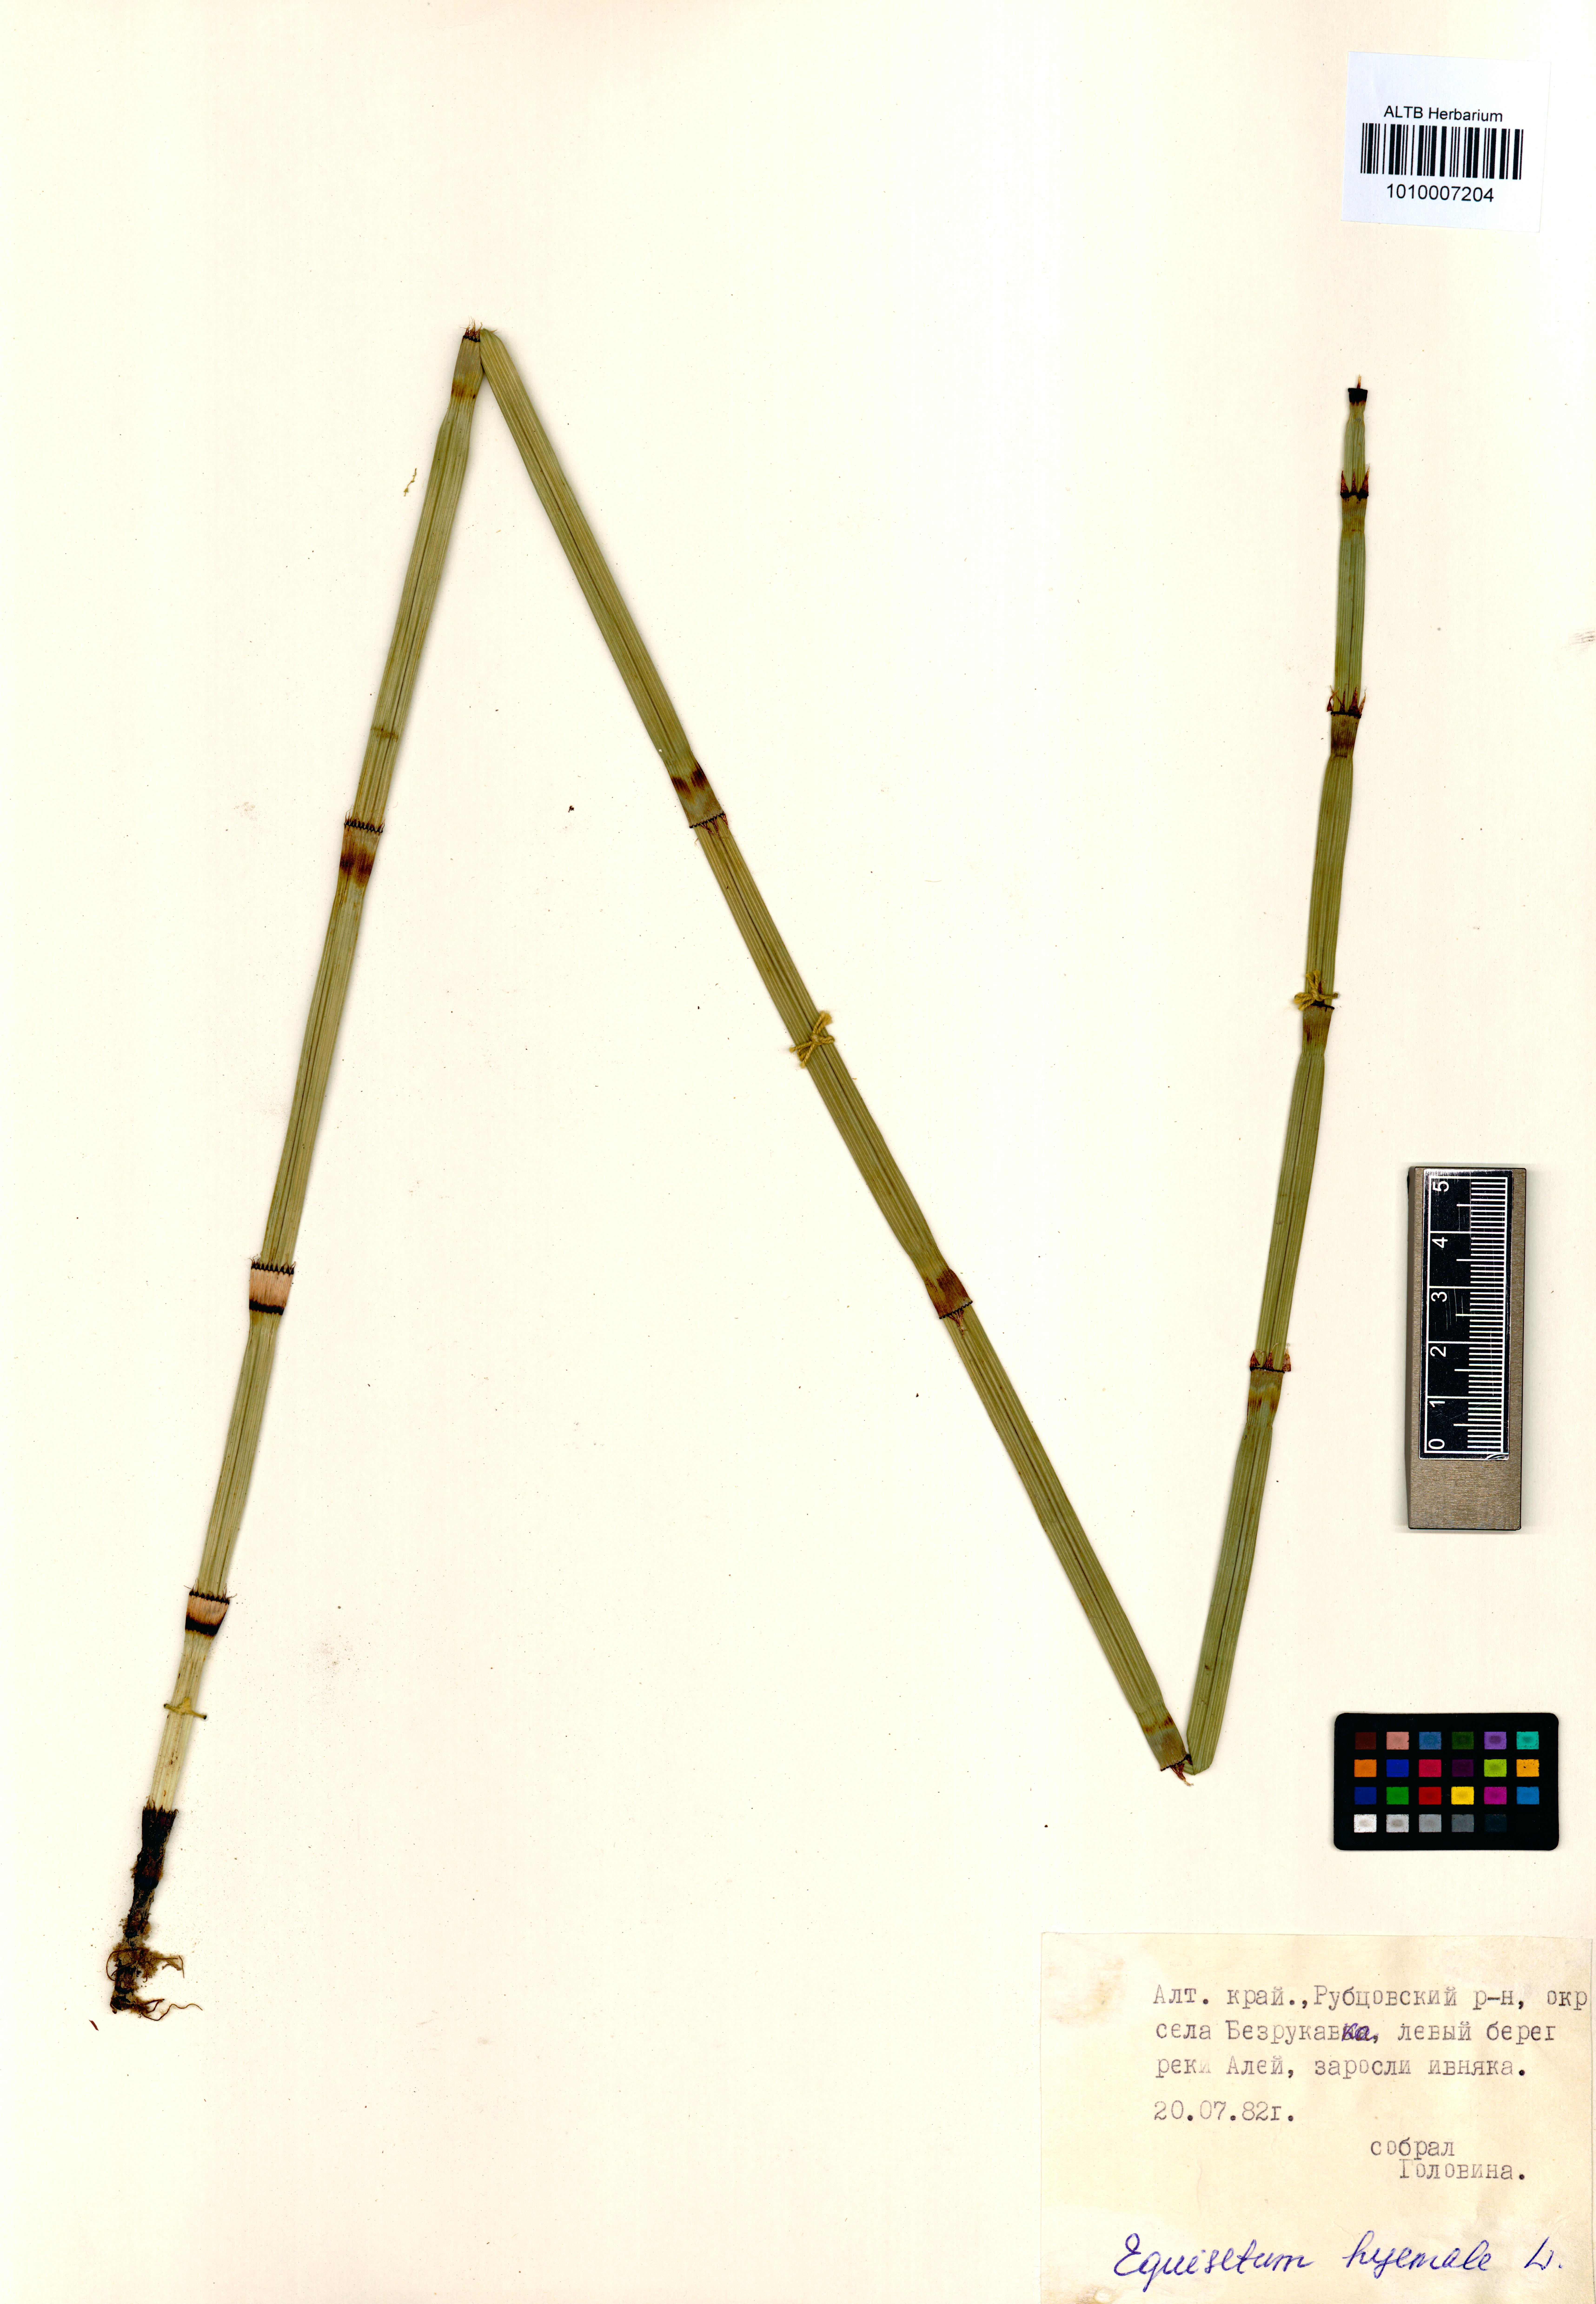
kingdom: Plantae
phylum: Tracheophyta
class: Polypodiopsida
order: Equisetales
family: Equisetaceae
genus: Equisetum
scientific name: Equisetum hyemale
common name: Rough horsetail
